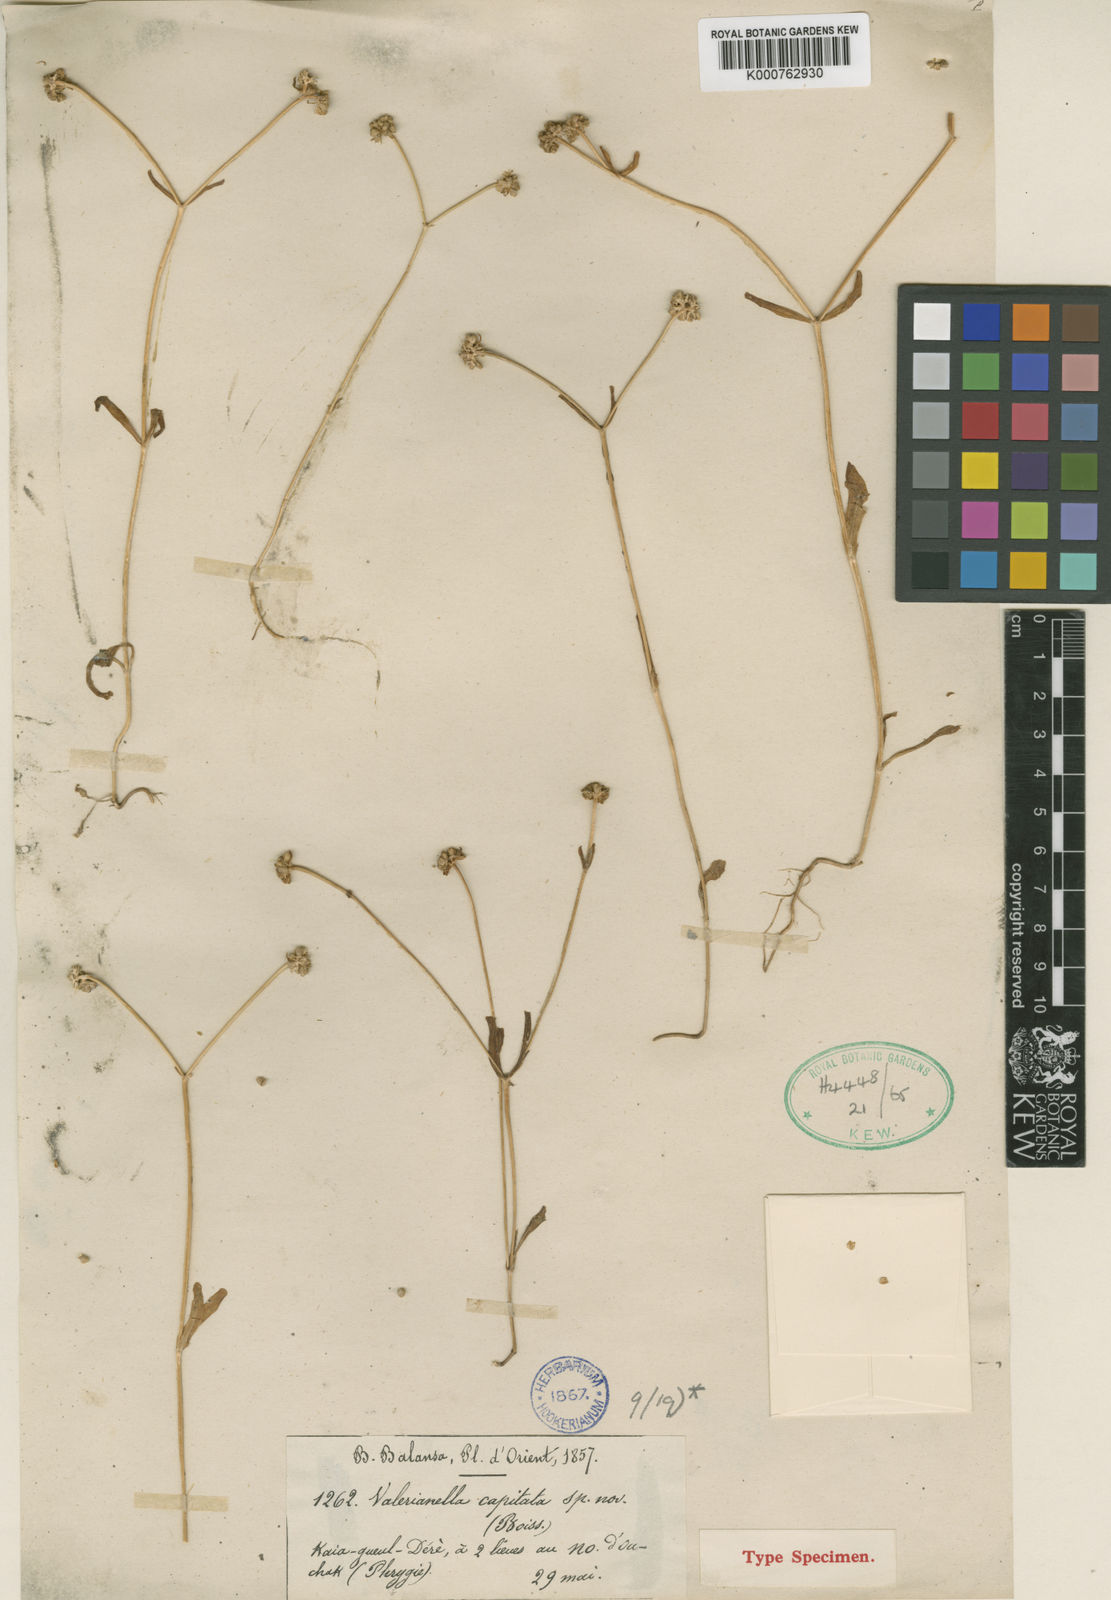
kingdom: Plantae
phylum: Tracheophyta
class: Magnoliopsida
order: Dipsacales
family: Caprifoliaceae
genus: Valerianella
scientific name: Valerianella
